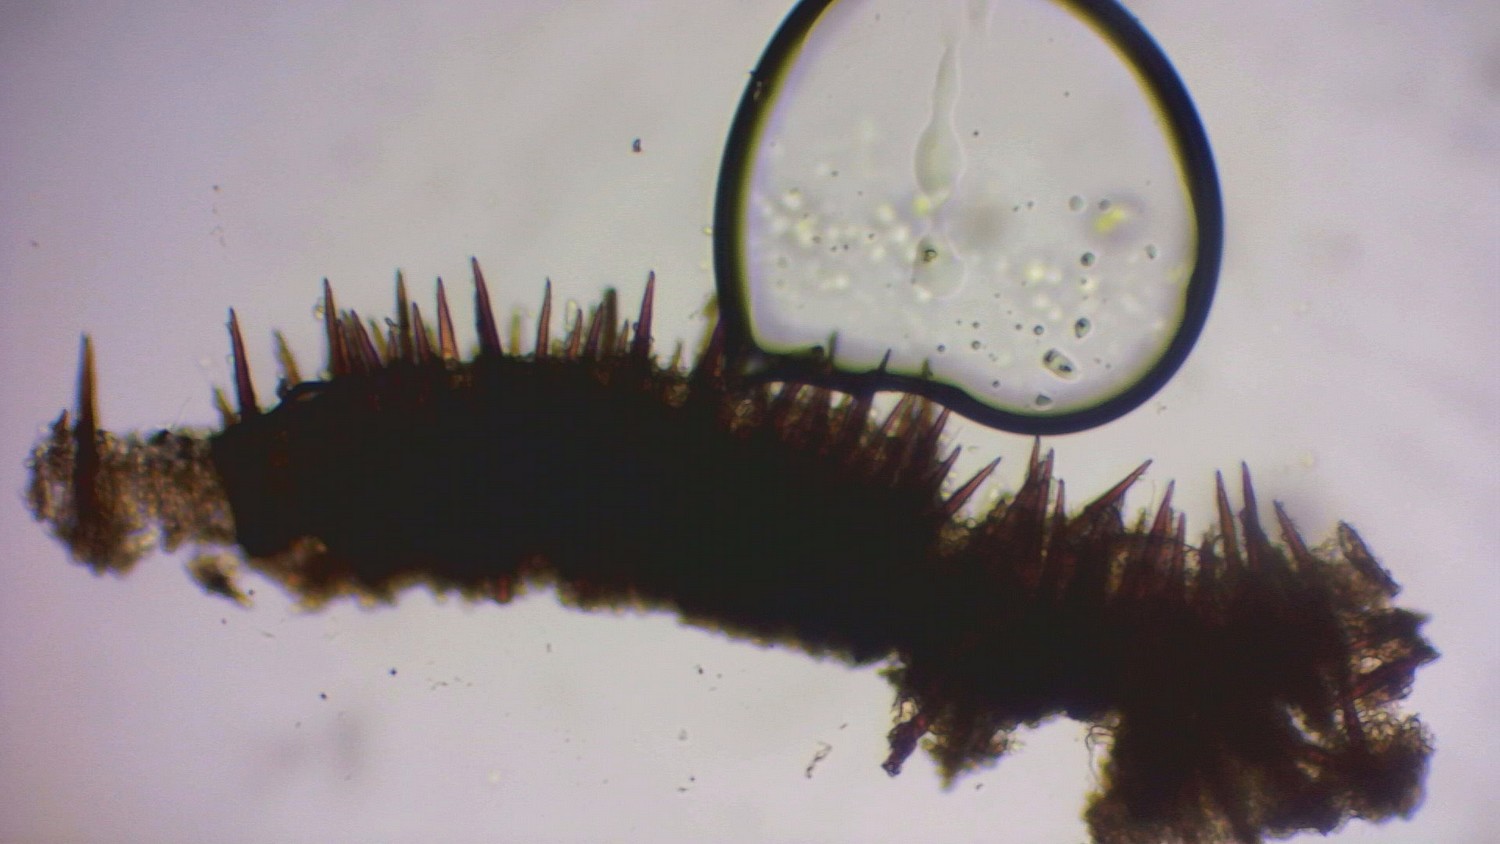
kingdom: Fungi
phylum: Basidiomycota
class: Agaricomycetes
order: Hymenochaetales
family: Hymenochaetaceae
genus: Hymenochaete
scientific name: Hymenochaete rubiginosa
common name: stiv ruslædersvamp
